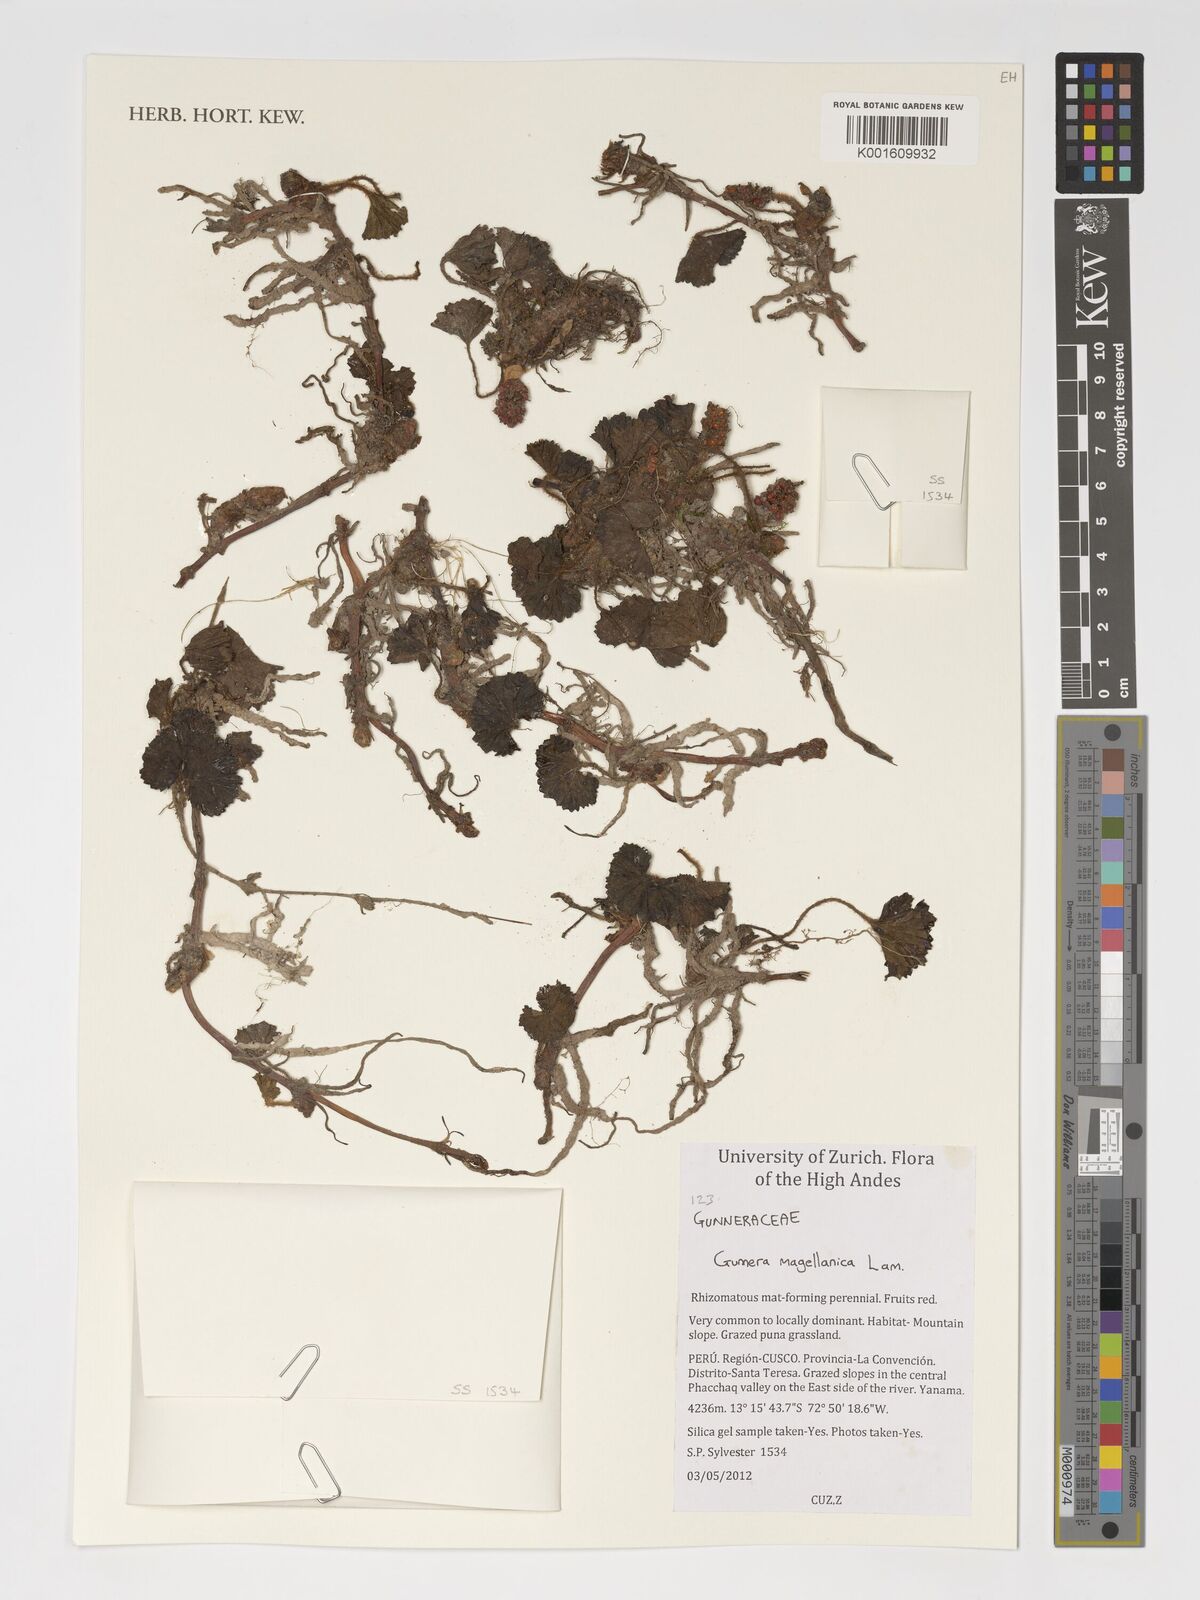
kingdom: Plantae
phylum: Tracheophyta
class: Magnoliopsida
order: Gunnerales
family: Gunneraceae
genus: Gunnera
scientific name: Gunnera magellanica
